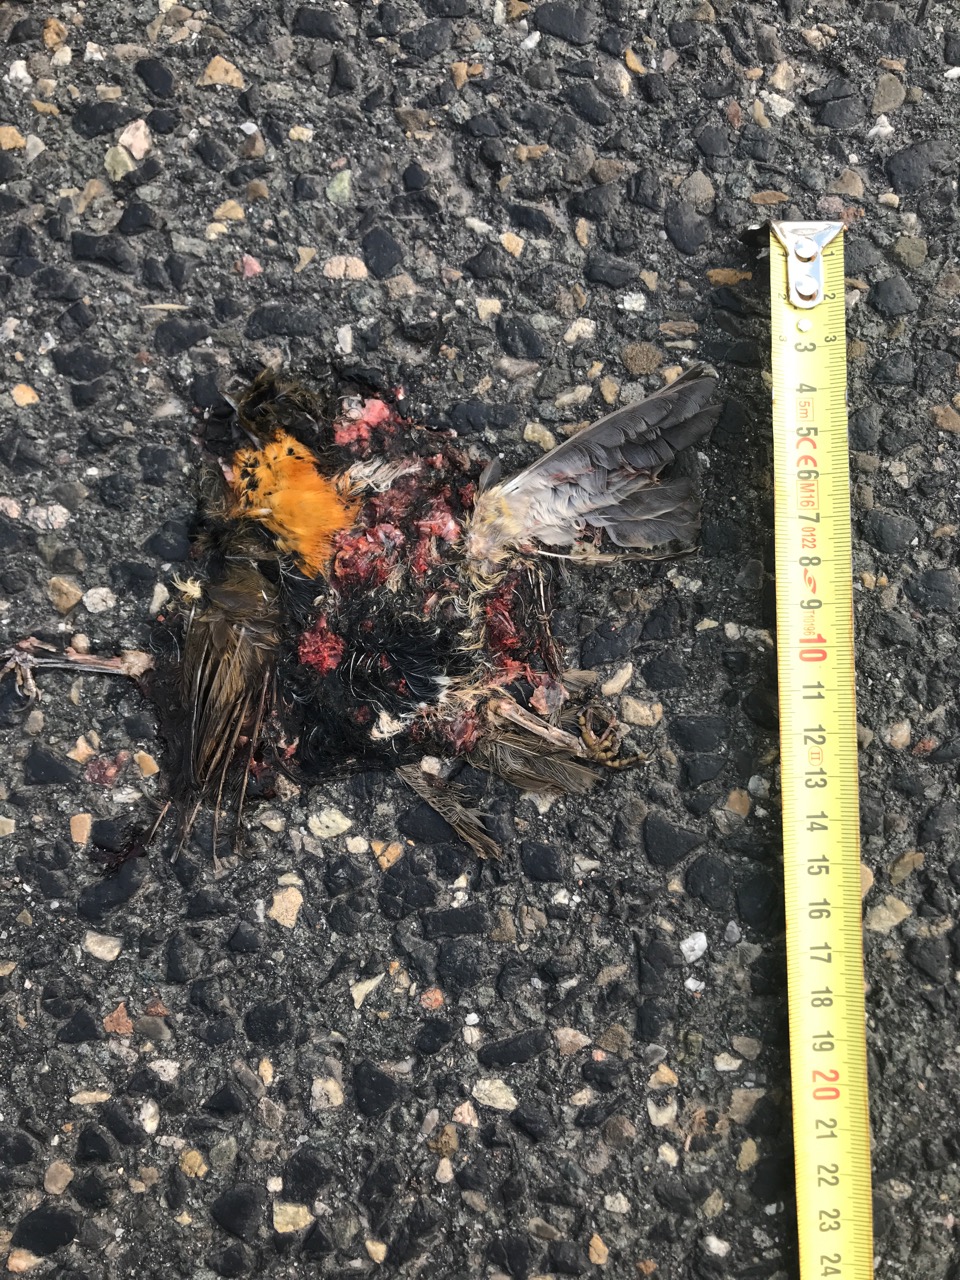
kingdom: Animalia
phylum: Chordata
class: Aves
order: Passeriformes
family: Muscicapidae
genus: Erithacus
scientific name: Erithacus rubecula
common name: European robin
